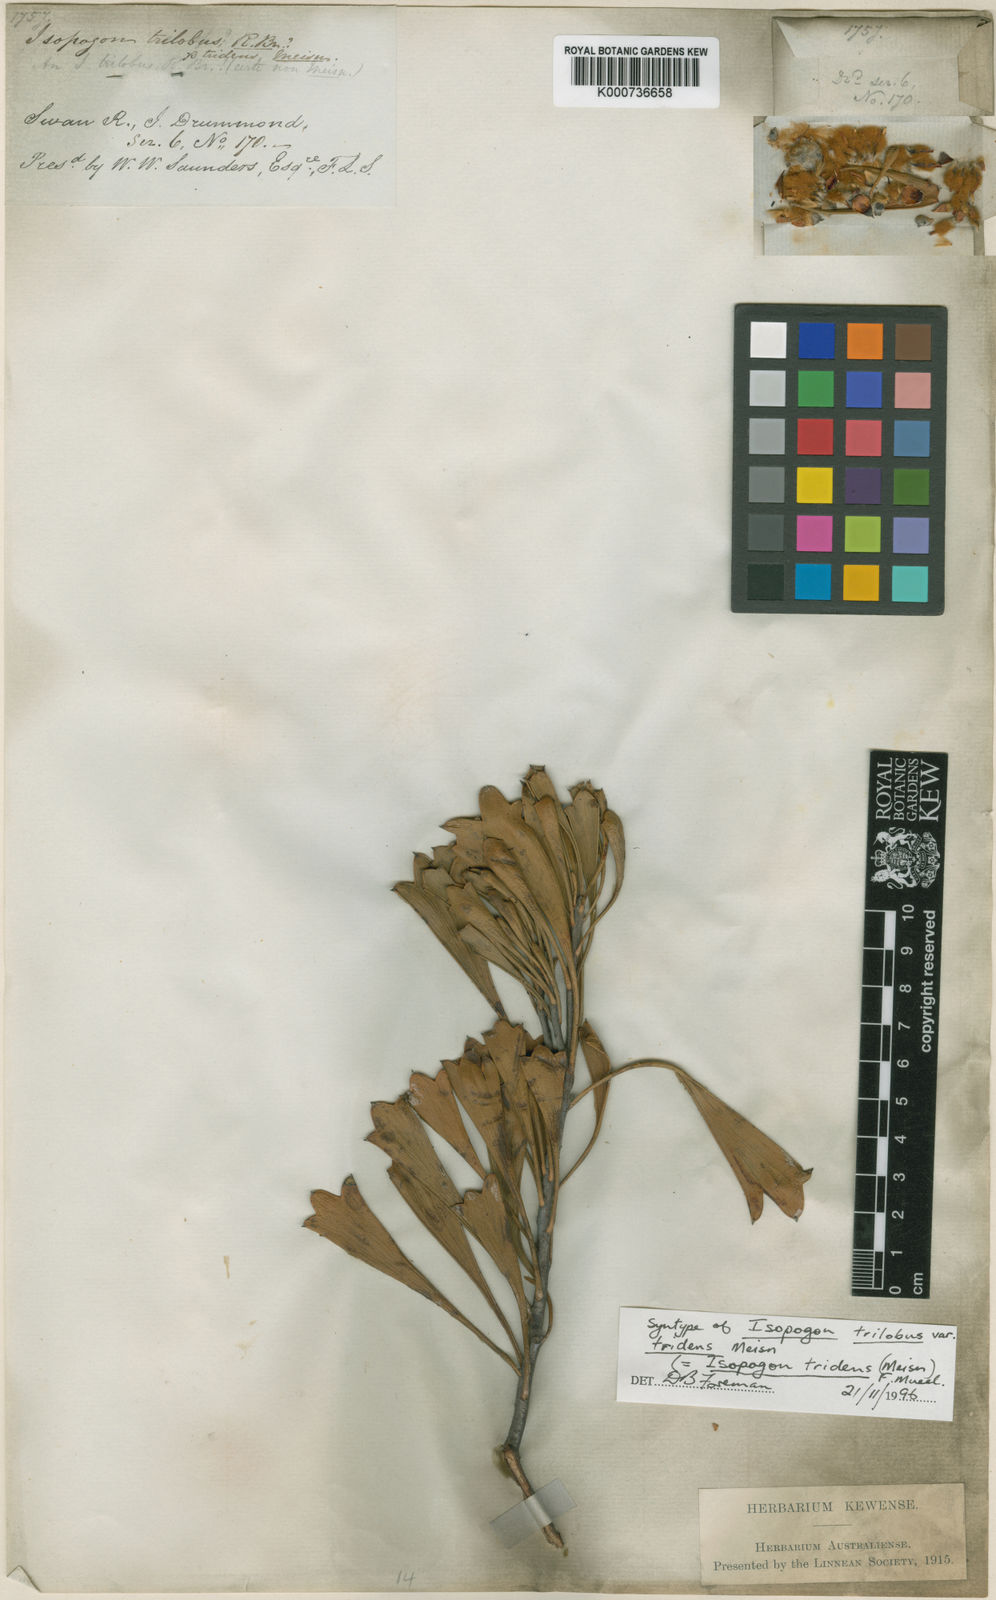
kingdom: Plantae
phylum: Tracheophyta
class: Magnoliopsida
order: Proteales
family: Proteaceae
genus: Isopogon
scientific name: Isopogon tridens
